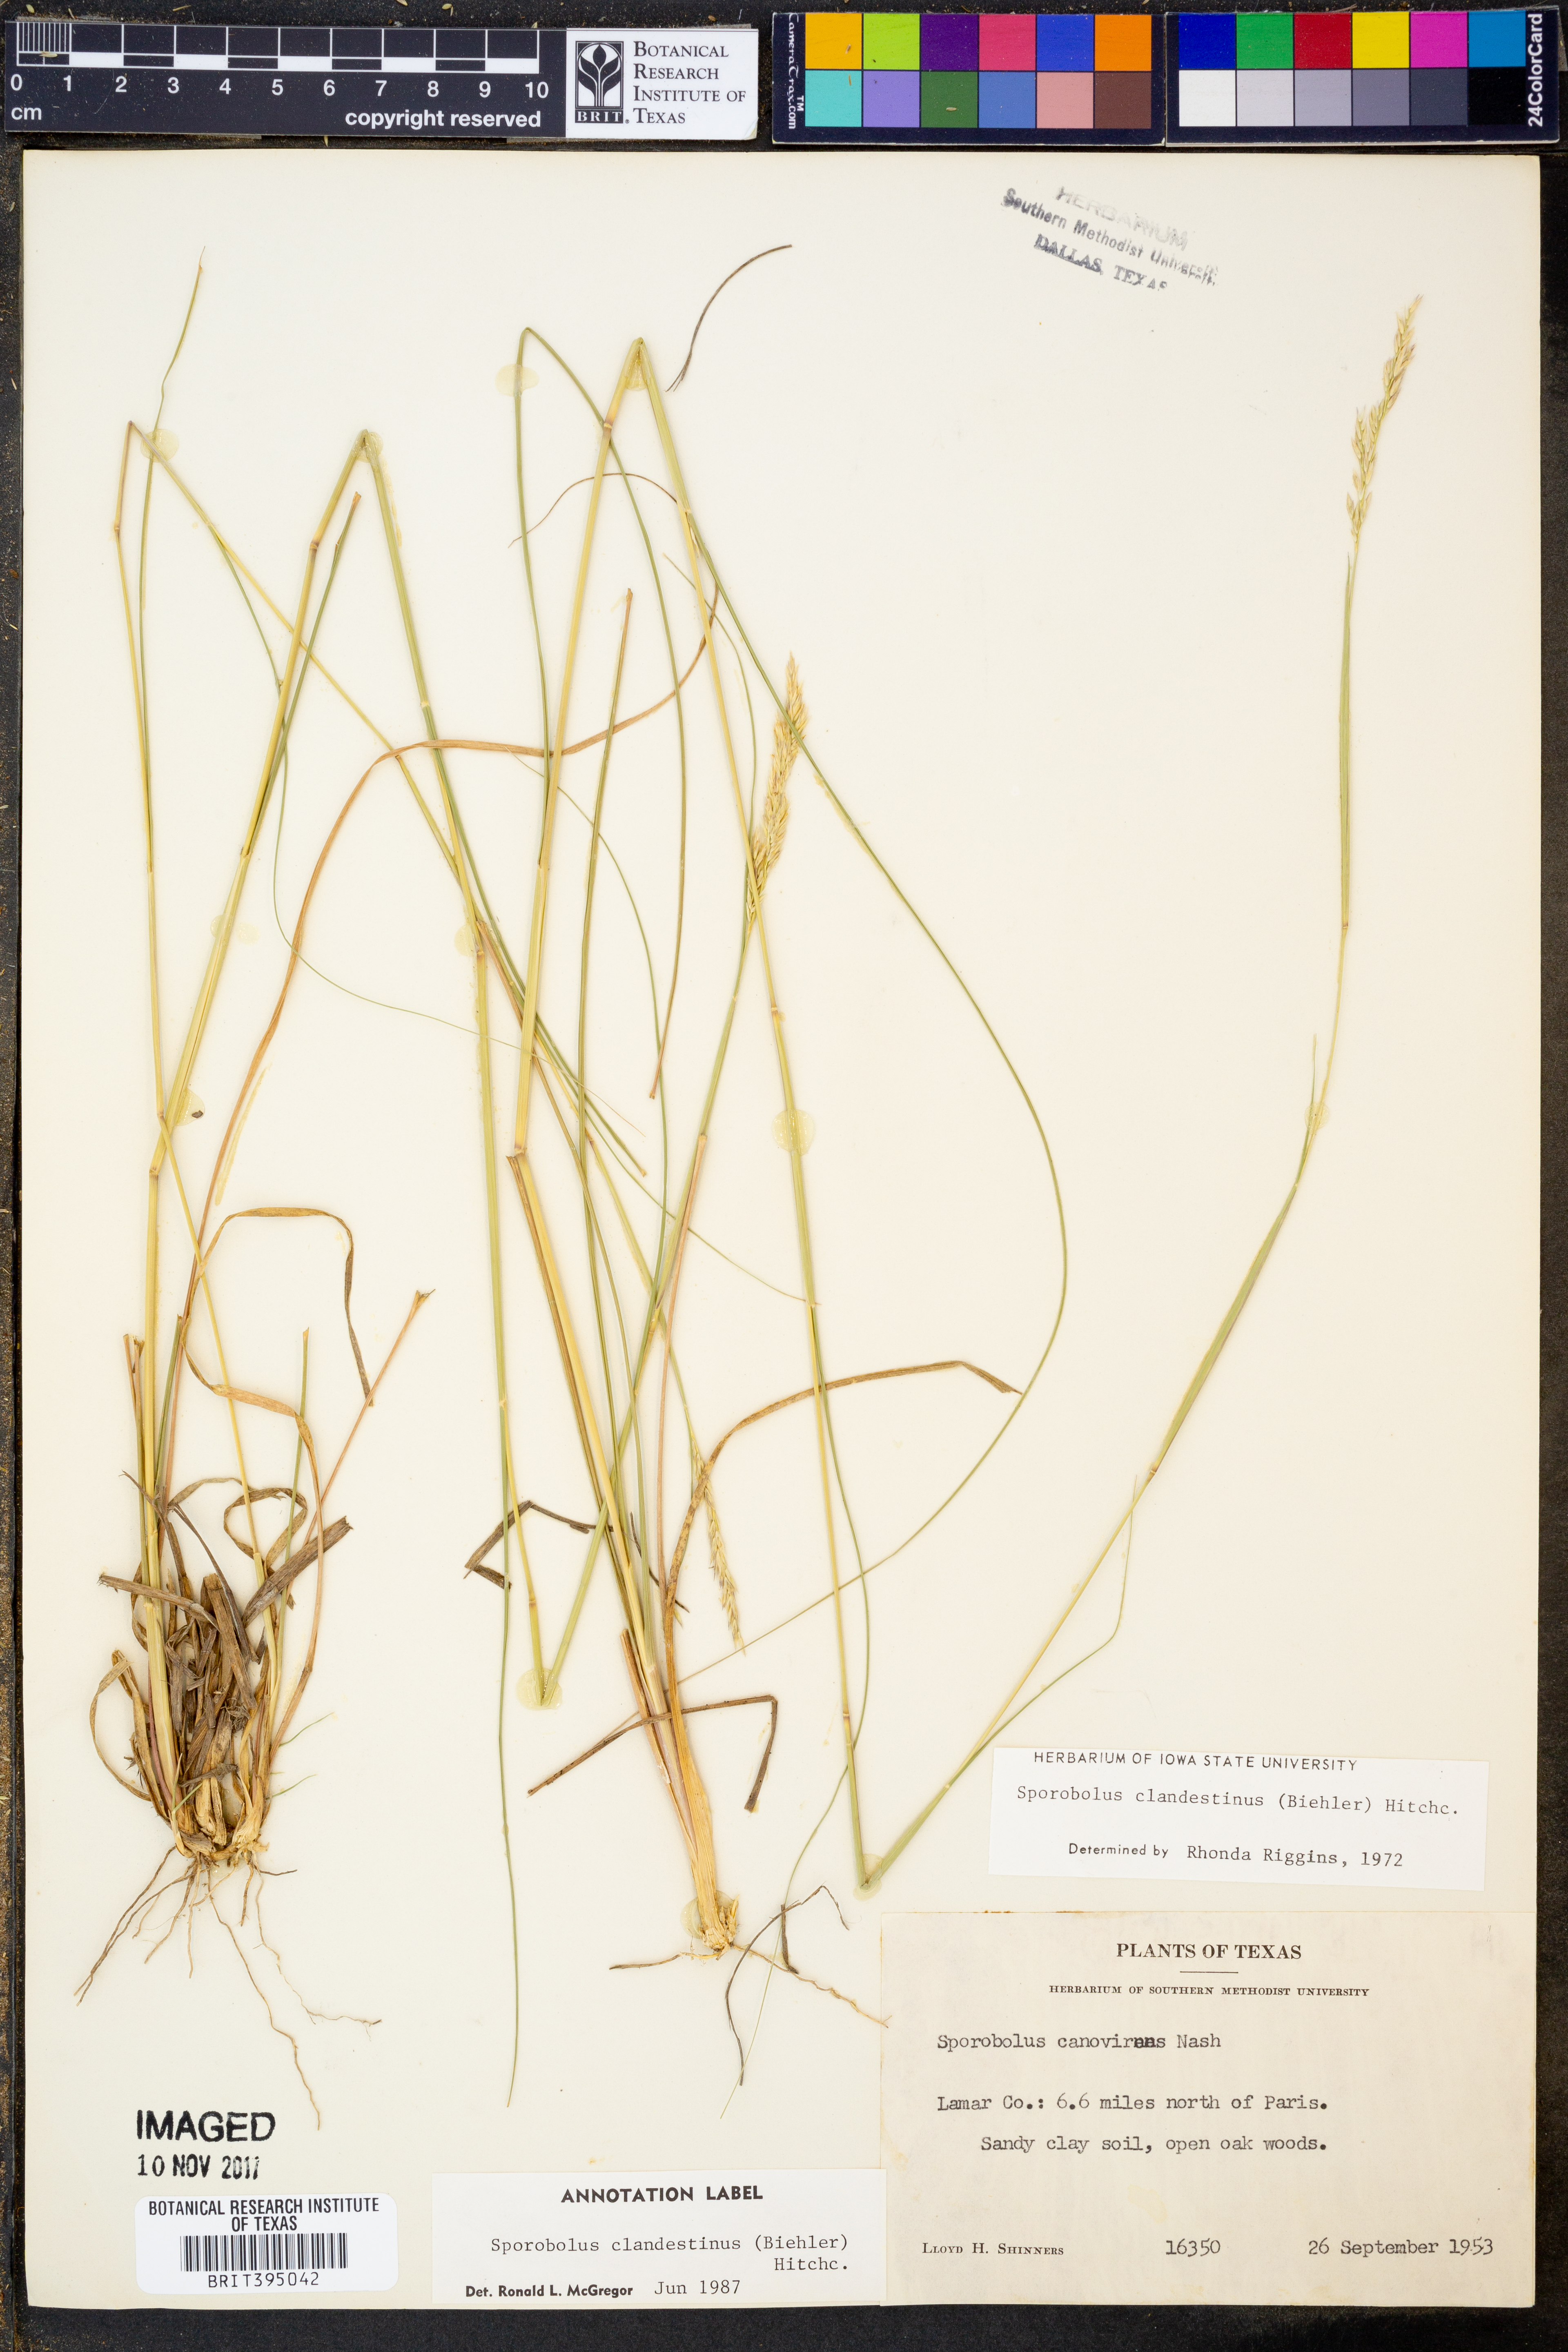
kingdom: Plantae
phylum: Tracheophyta
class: Liliopsida
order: Poales
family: Poaceae
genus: Sporobolus
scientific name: Sporobolus clandestinus
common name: Hidden dropseed
